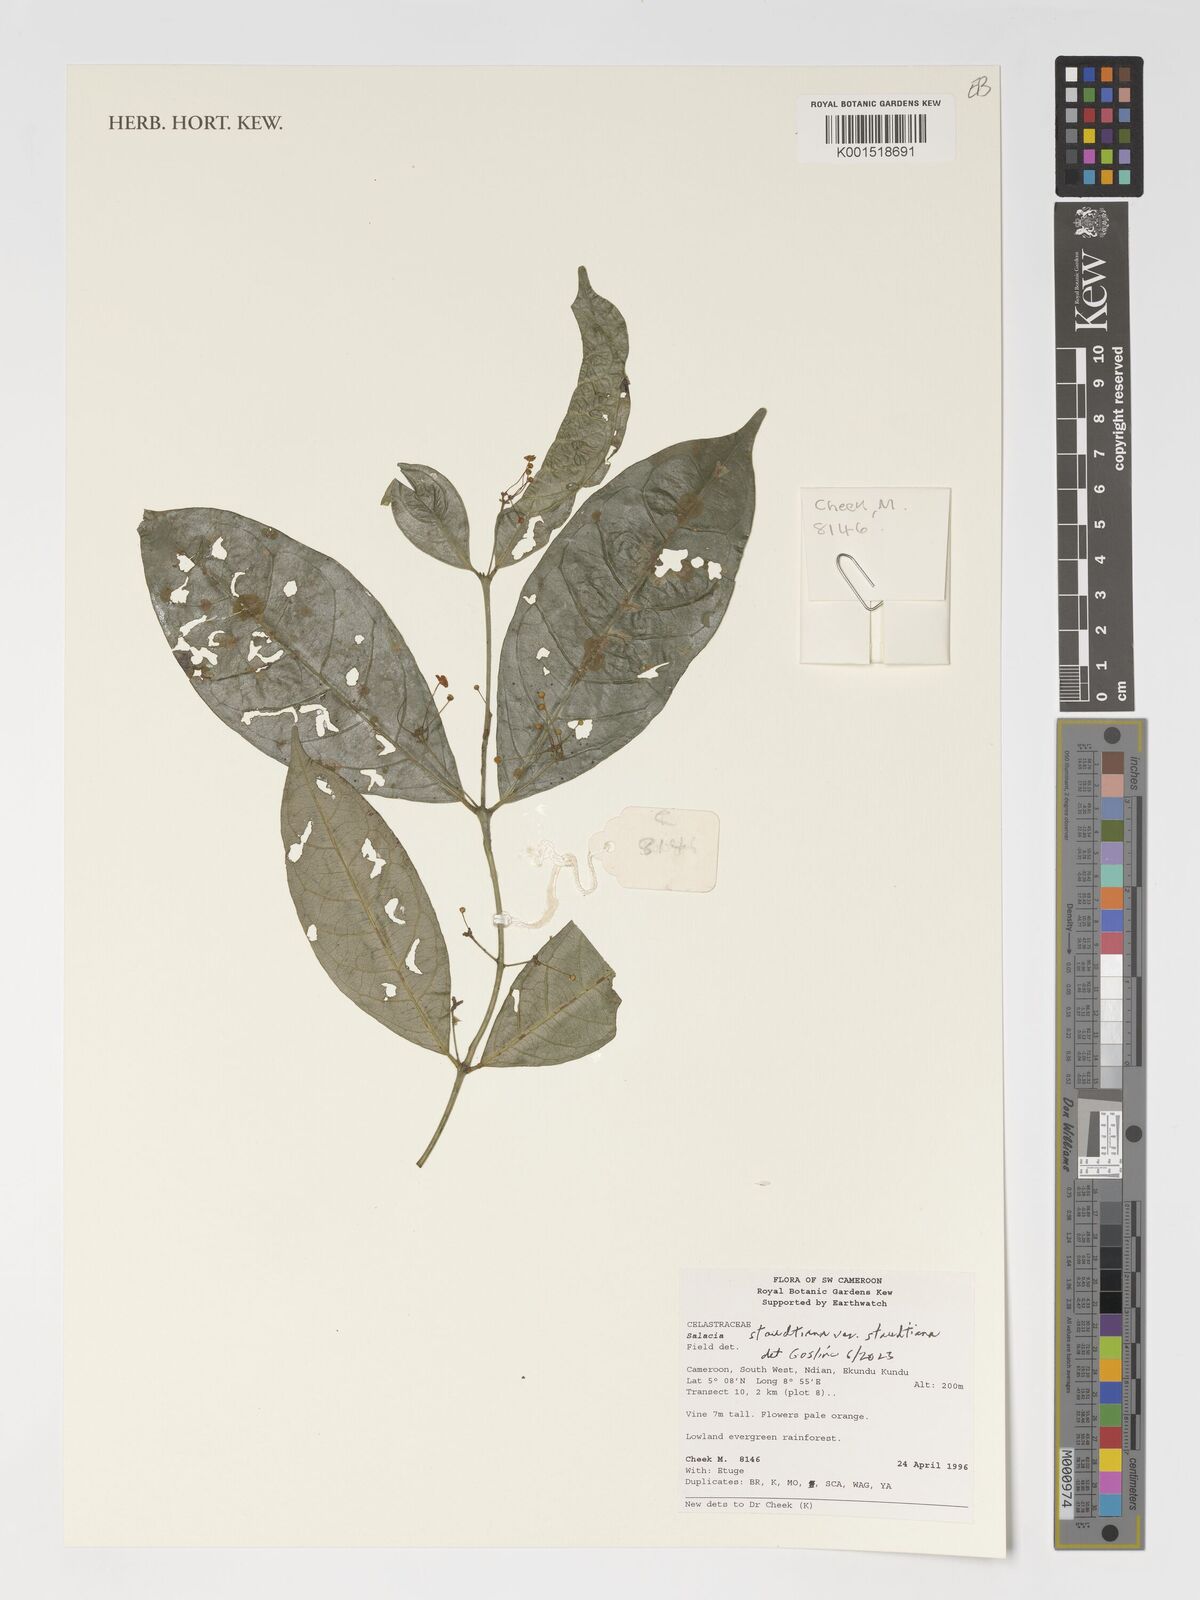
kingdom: Plantae
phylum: Tracheophyta
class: Magnoliopsida
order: Celastrales
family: Celastraceae
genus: Salacia
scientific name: Salacia staudtiana
